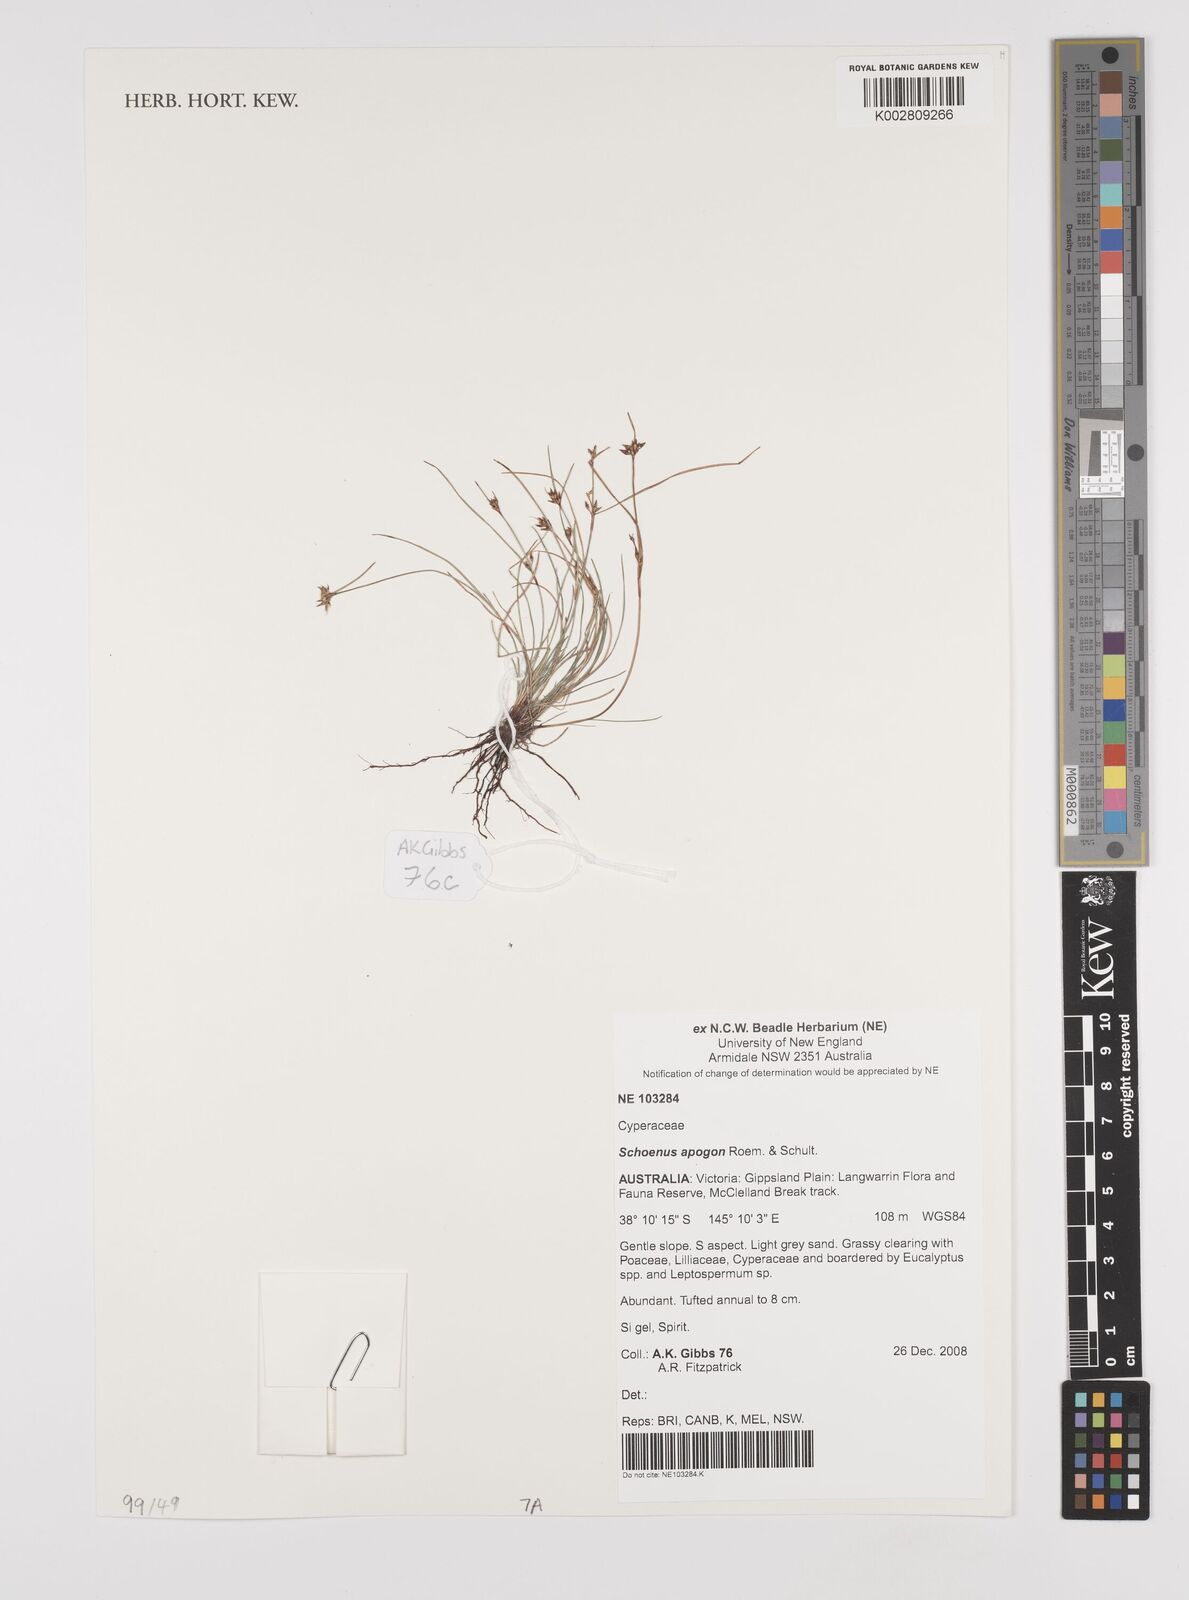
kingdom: Plantae
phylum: Tracheophyta
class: Liliopsida
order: Poales
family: Cyperaceae
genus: Schoenus
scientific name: Schoenus apogon
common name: Smooth bogrush
